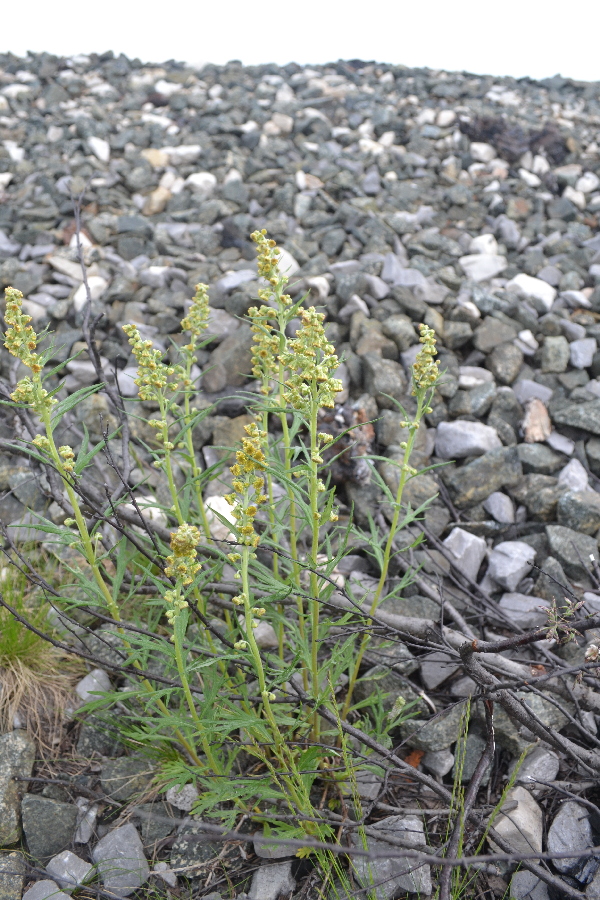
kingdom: Plantae
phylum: Tracheophyta
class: Magnoliopsida
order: Asterales
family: Asteraceae
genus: Artemisia
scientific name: Artemisia tilesii
